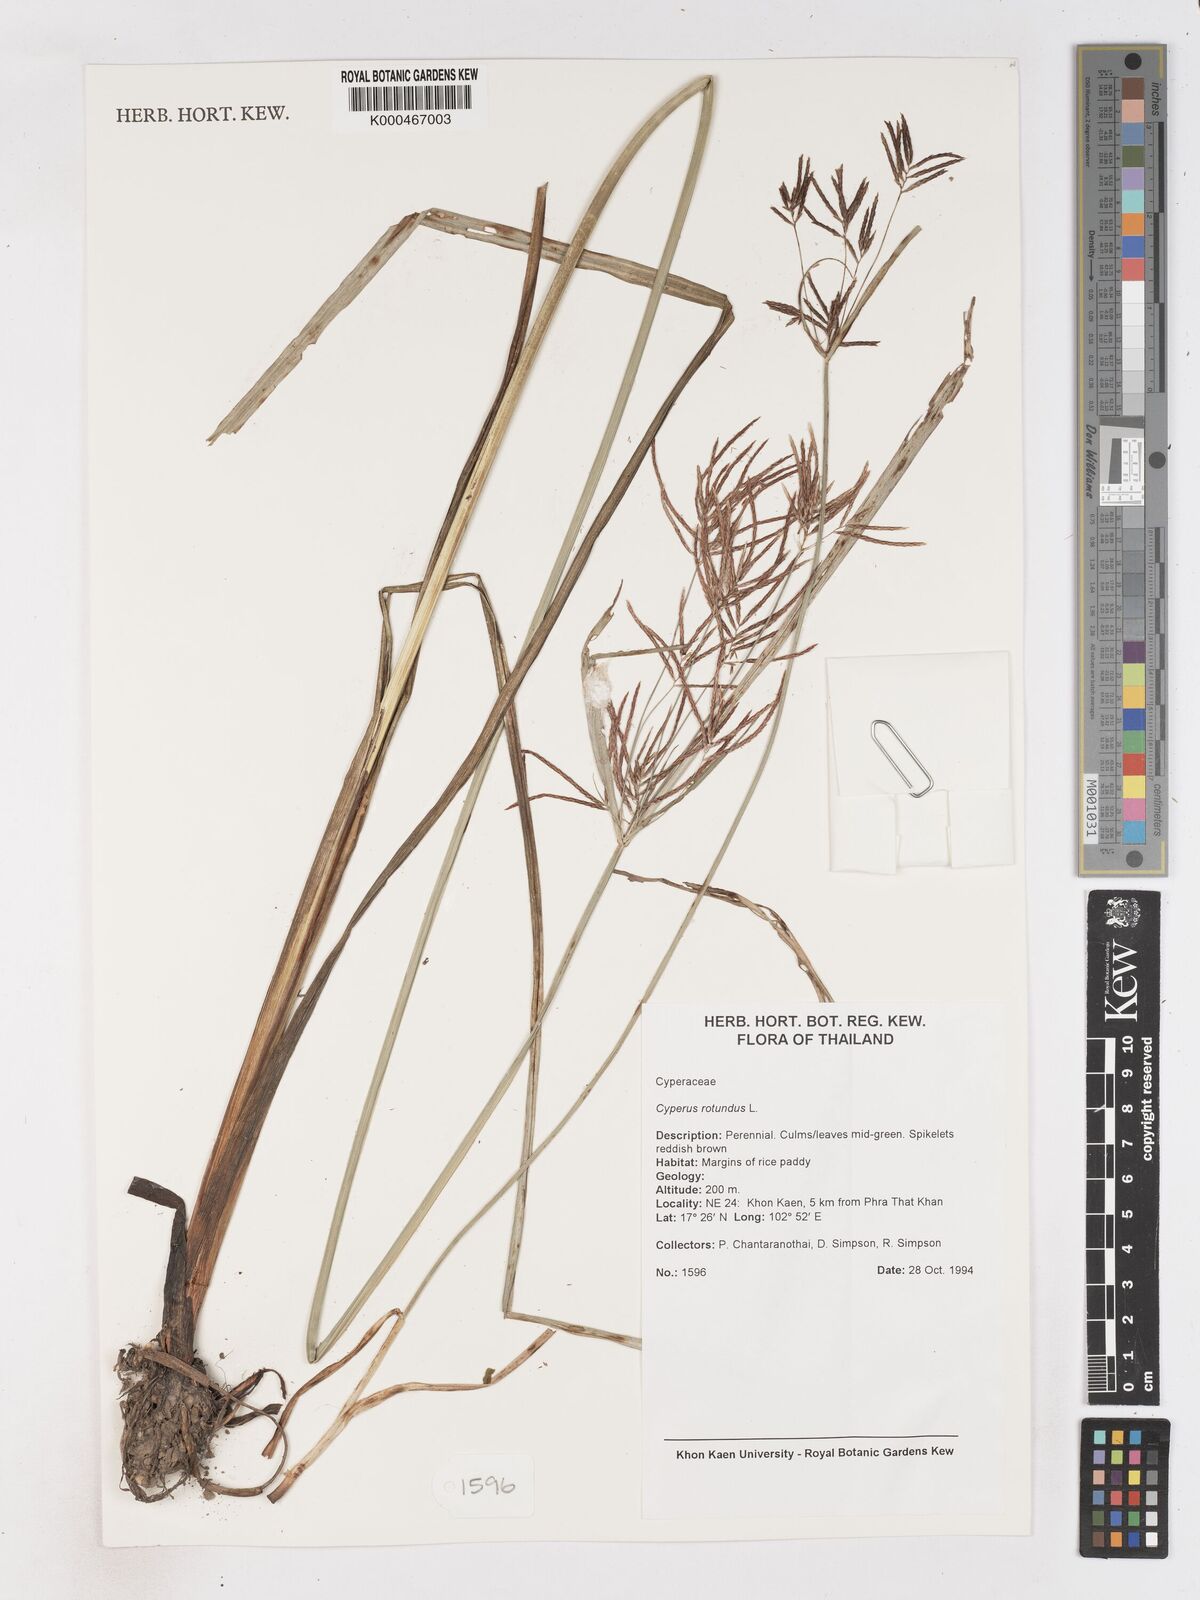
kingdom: Plantae
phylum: Tracheophyta
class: Liliopsida
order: Poales
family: Cyperaceae
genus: Cyperus
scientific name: Cyperus rotundus
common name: Nutgrass
